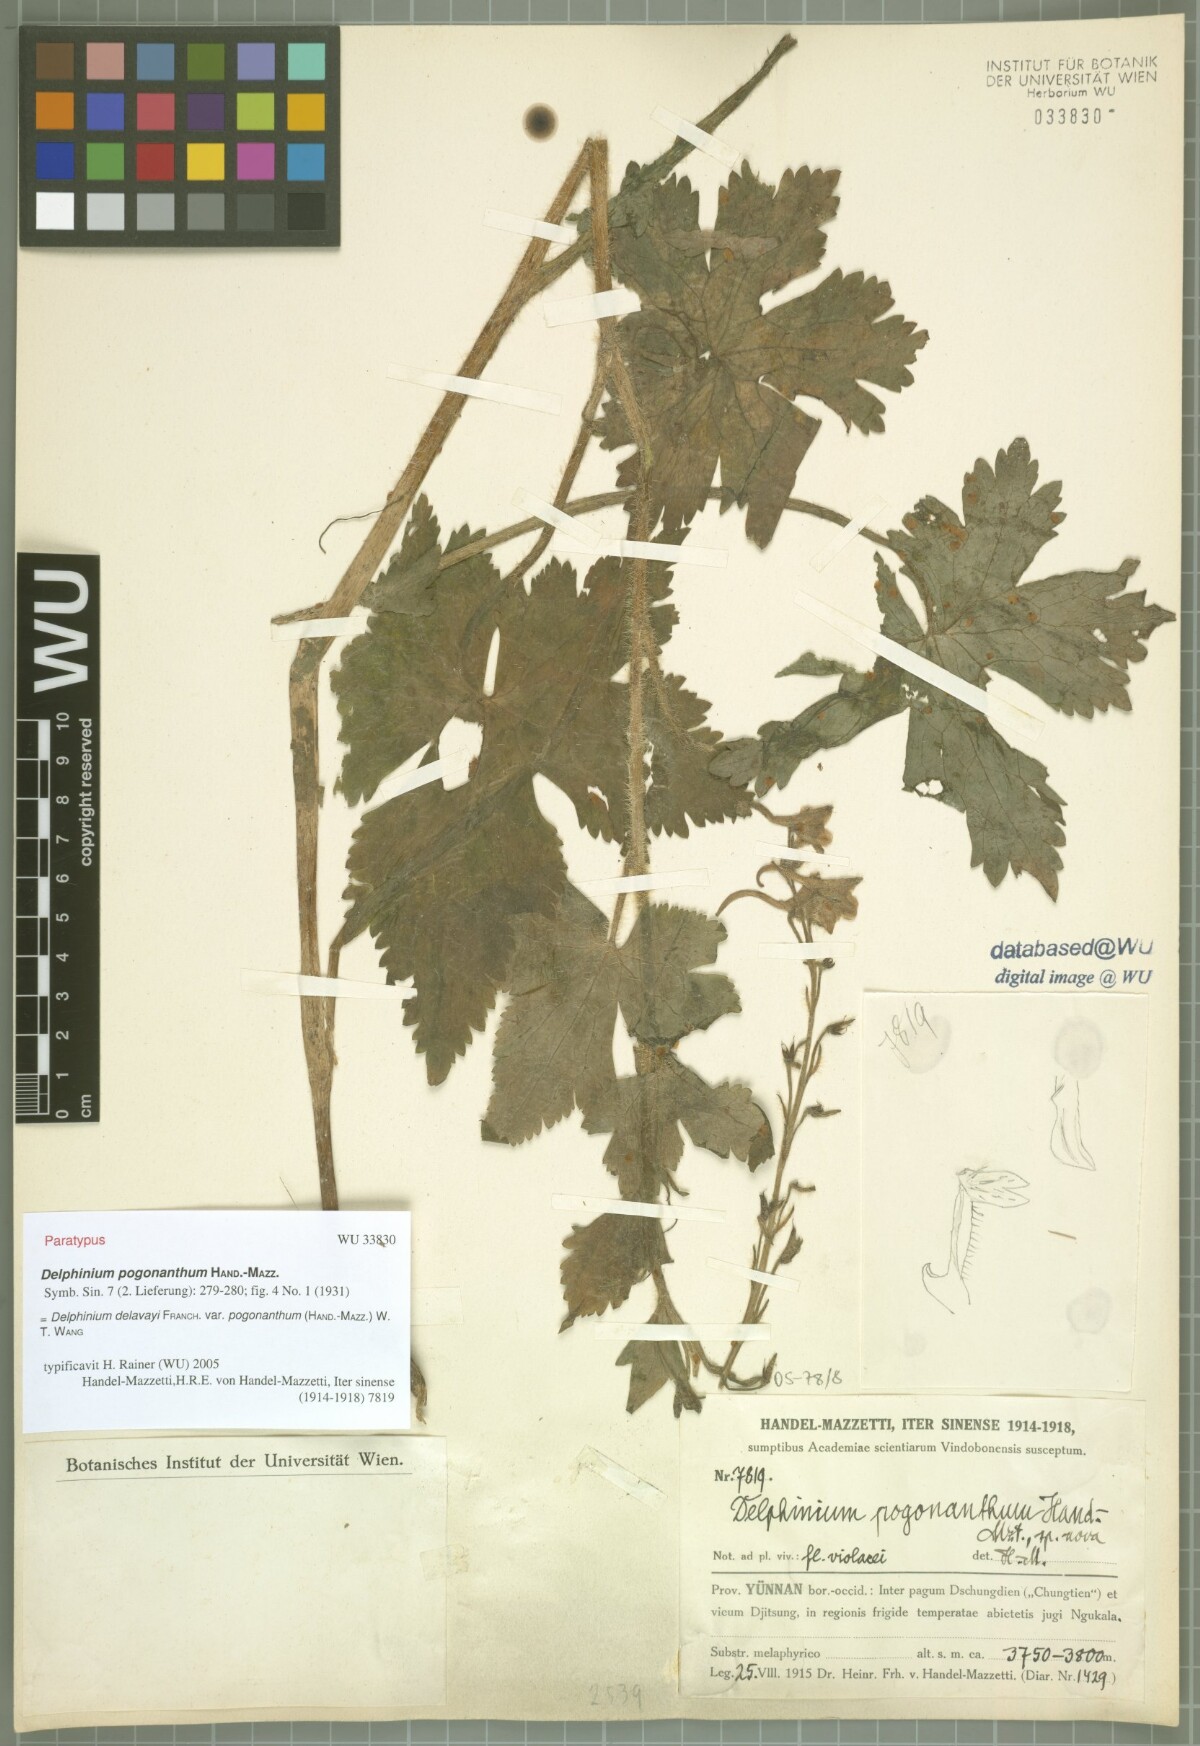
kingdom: Plantae
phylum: Tracheophyta
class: Magnoliopsida
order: Ranunculales
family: Ranunculaceae
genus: Delphinium
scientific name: Delphinium delavayi
